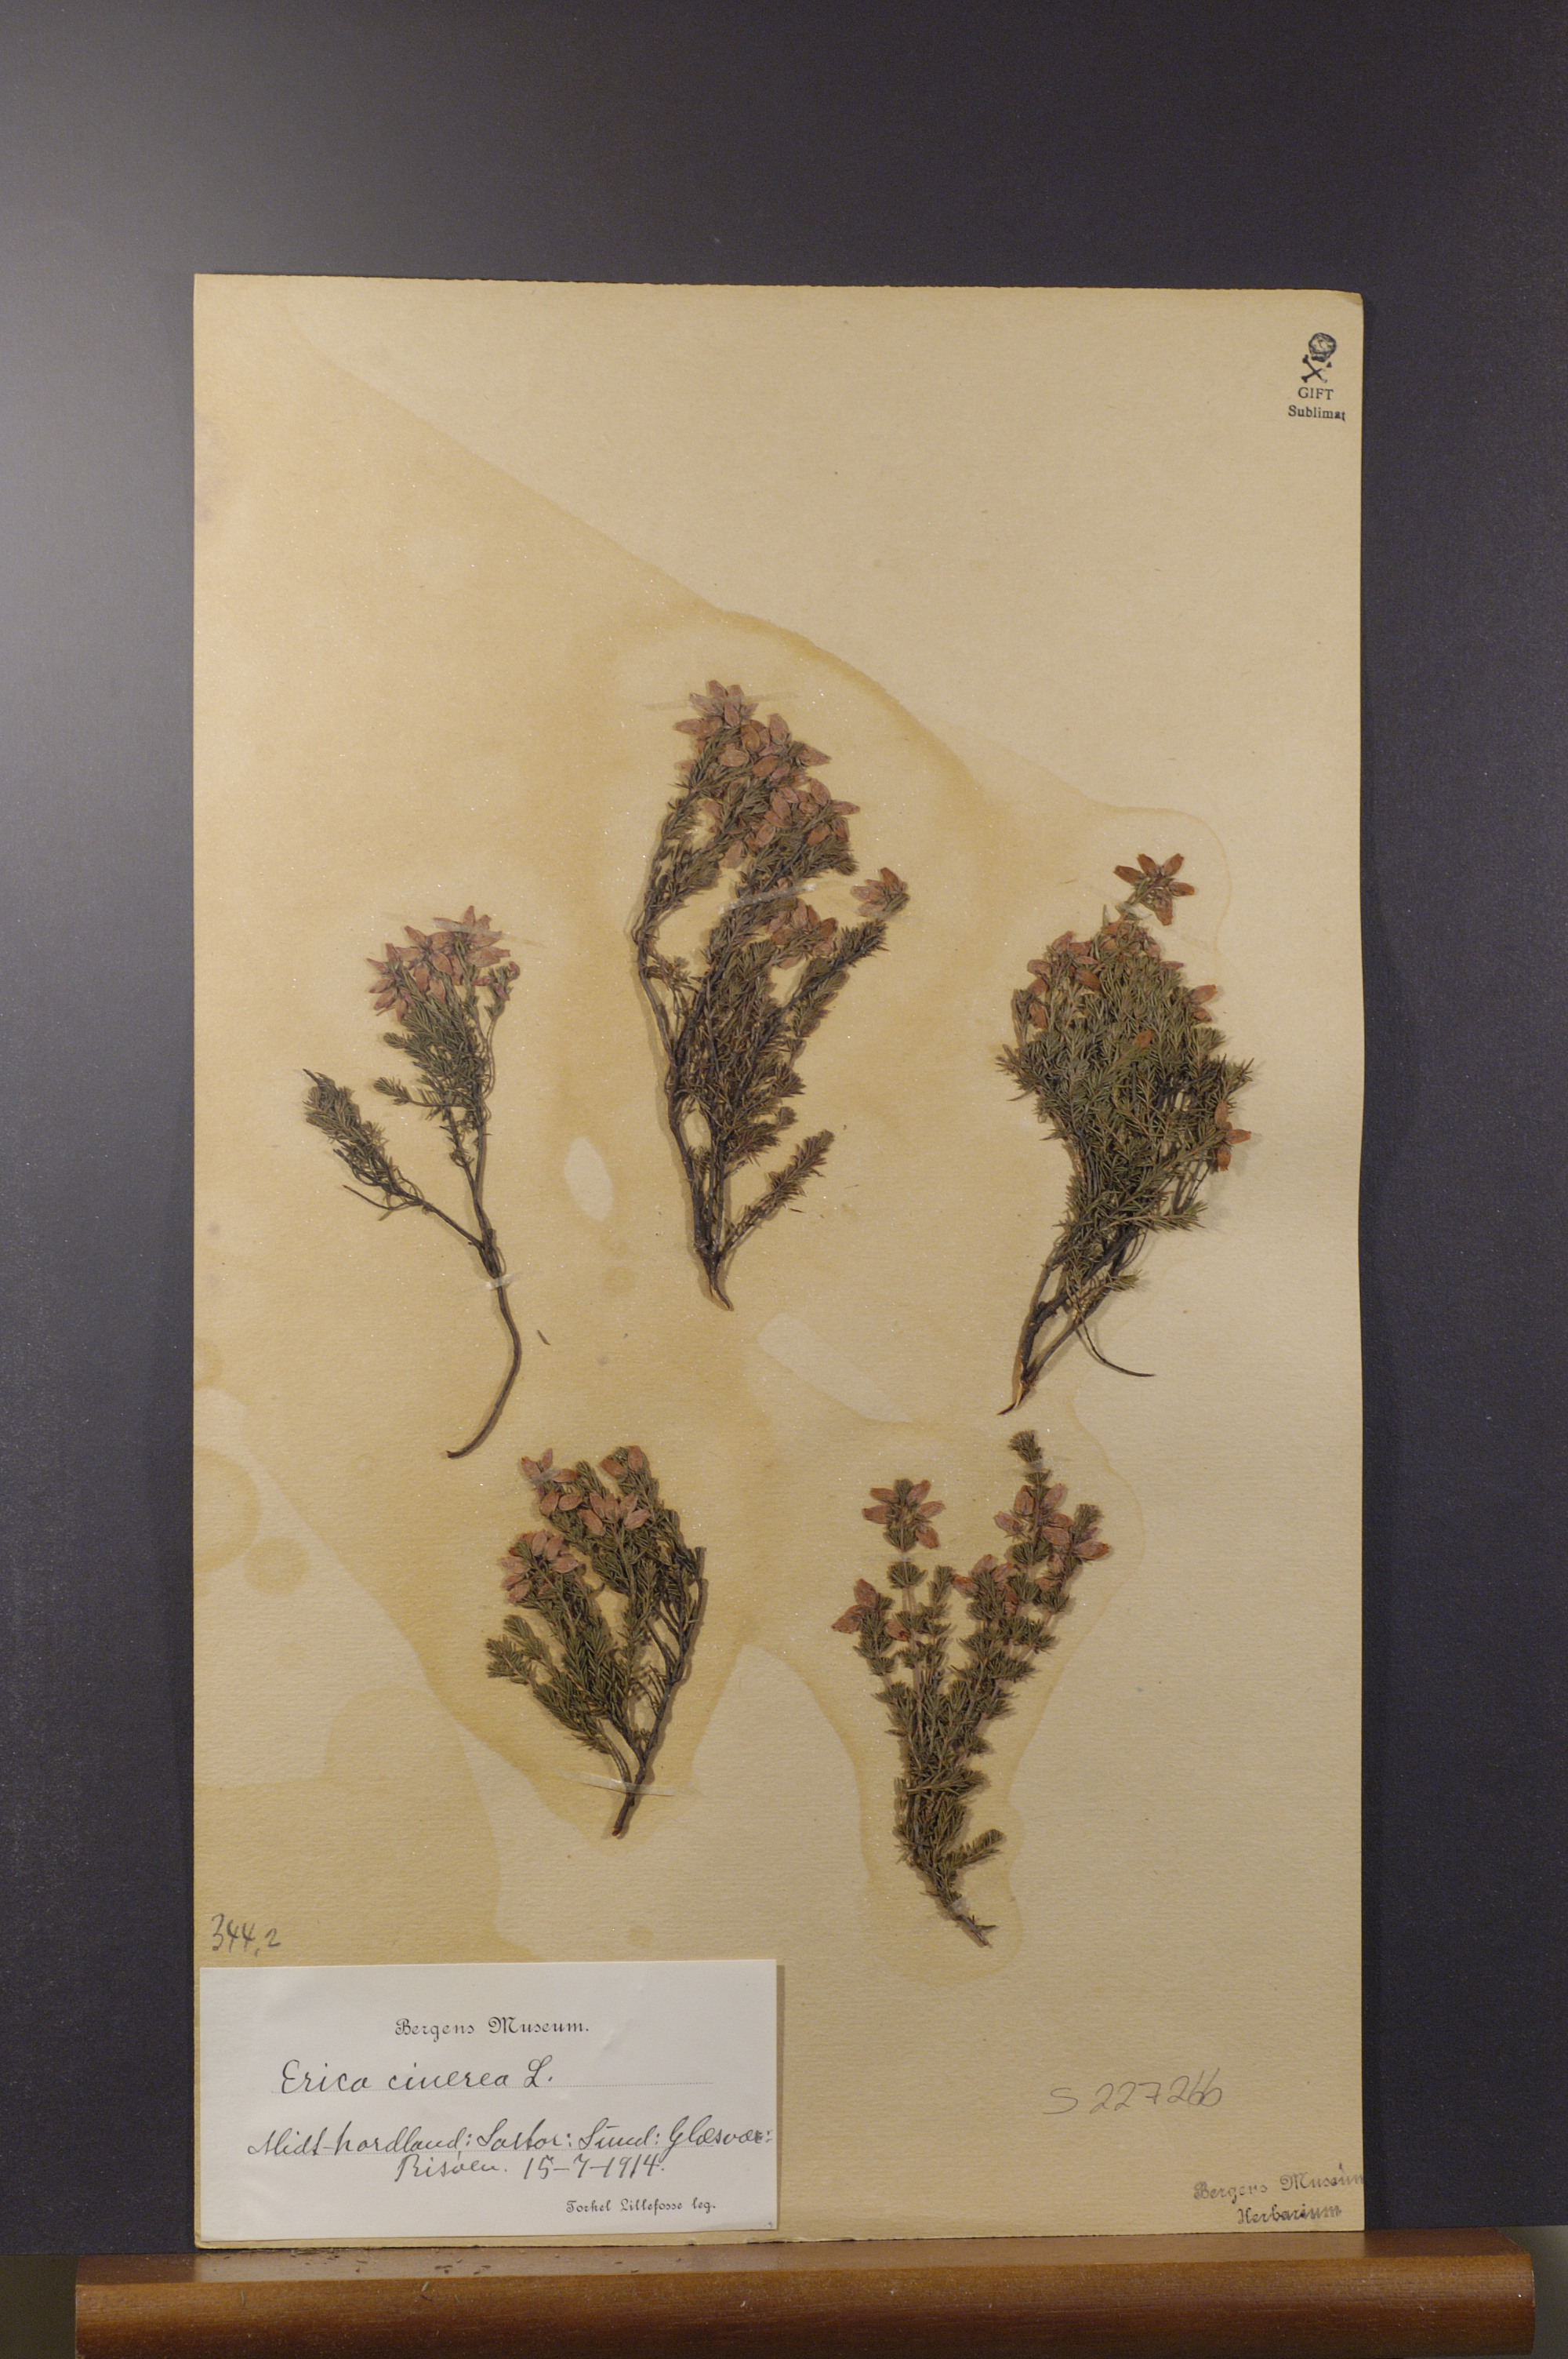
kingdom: Plantae
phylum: Tracheophyta
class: Magnoliopsida
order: Ericales
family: Ericaceae
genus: Erica
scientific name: Erica cinerea
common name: Bell heather
